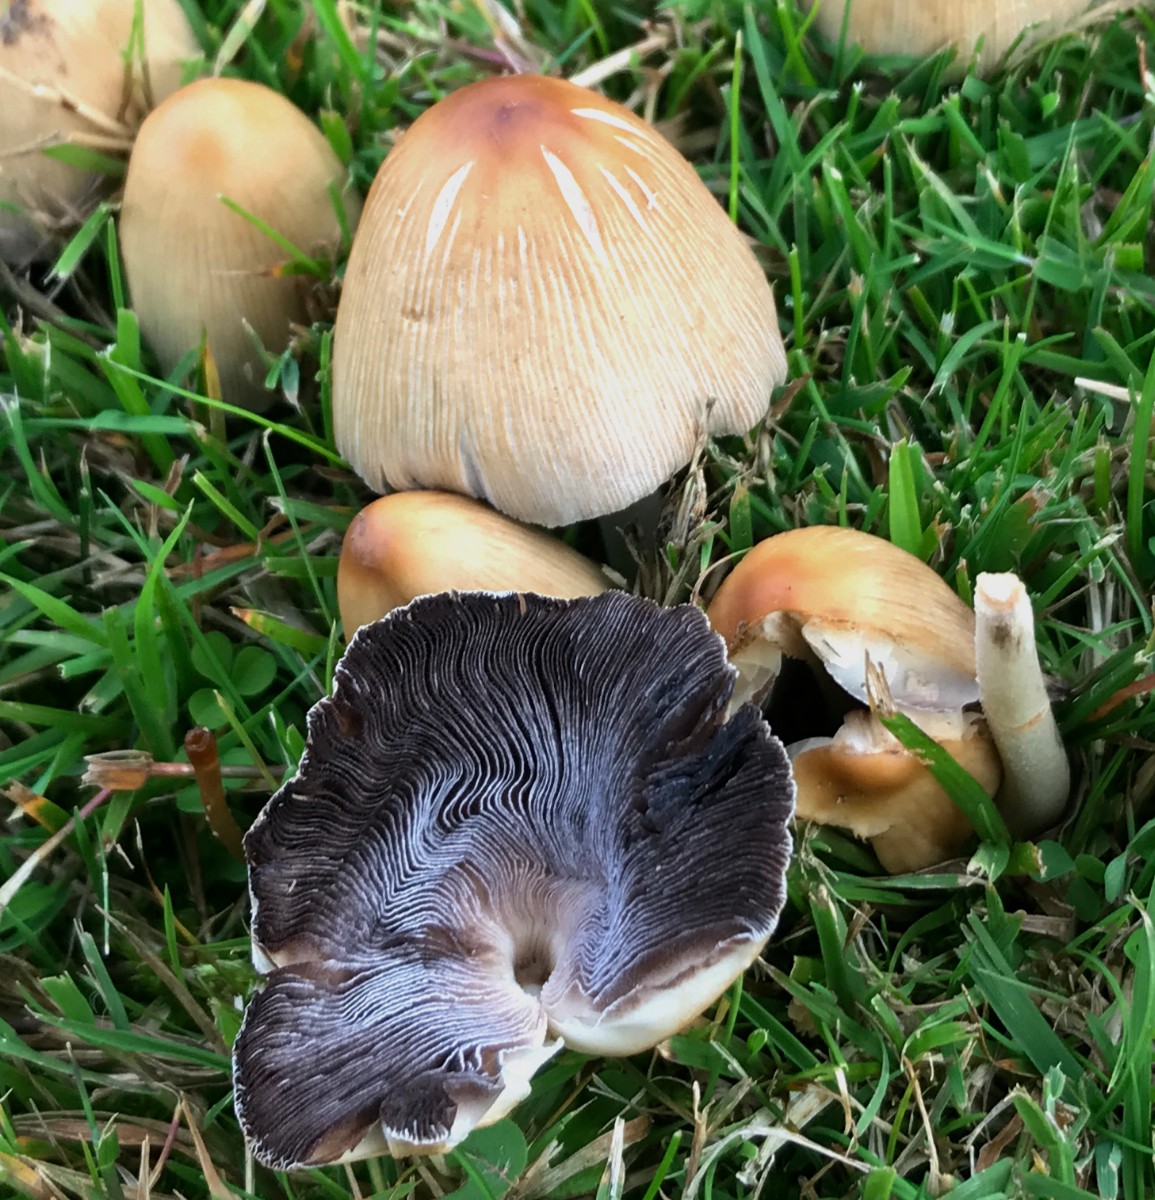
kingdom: Fungi
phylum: Basidiomycota
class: Agaricomycetes
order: Agaricales
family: Psathyrellaceae
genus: Coprinellus
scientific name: Coprinellus micaceus
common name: glimmer-blækhat
